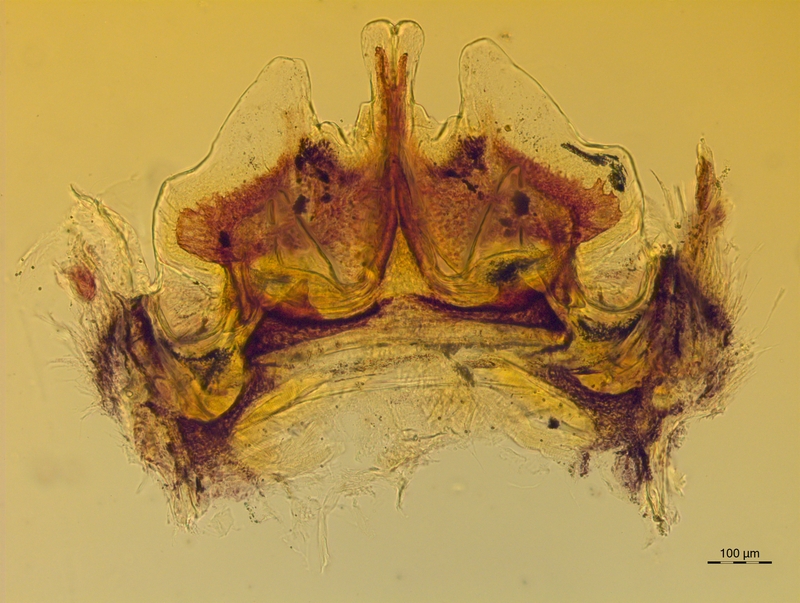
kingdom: Animalia
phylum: Arthropoda
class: Diplopoda
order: Chordeumatida
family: Craspedosomatidae
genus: Craspedosoma
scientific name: Craspedosoma rawlinsii
